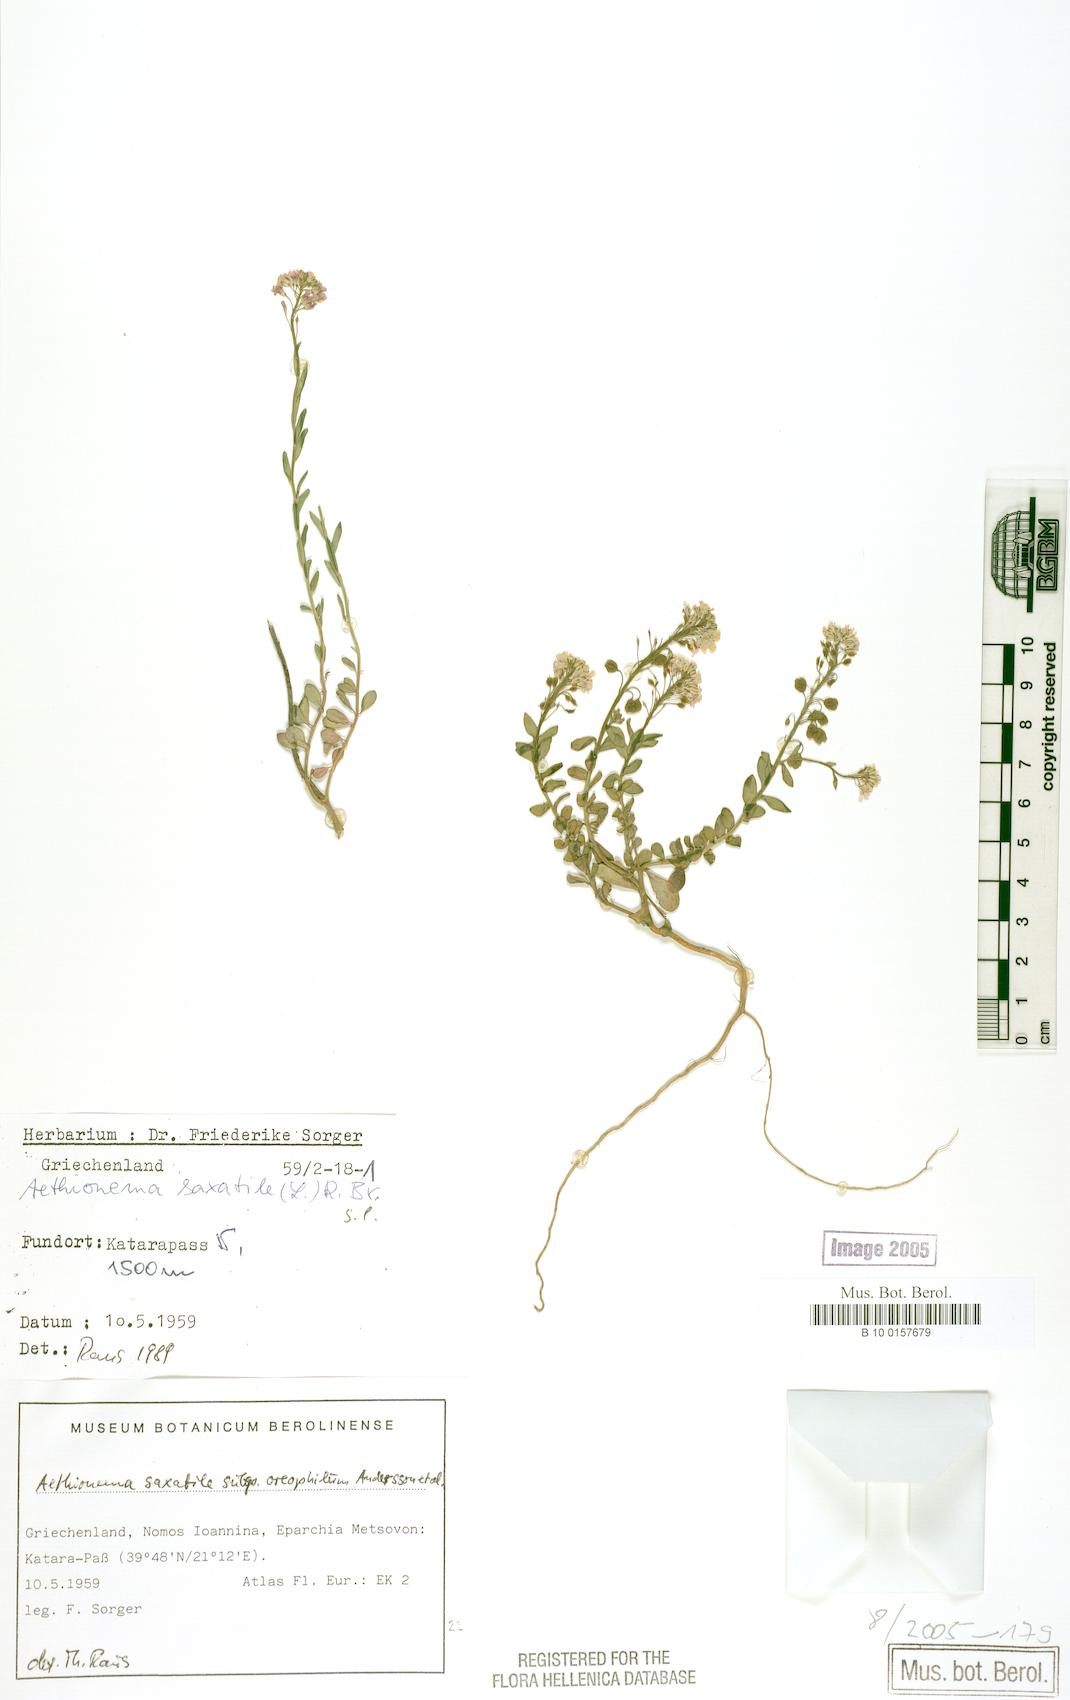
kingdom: Plantae
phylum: Tracheophyta
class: Magnoliopsida
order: Brassicales
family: Brassicaceae
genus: Aethionema
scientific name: Aethionema saxatile
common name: Burnt candytuft
